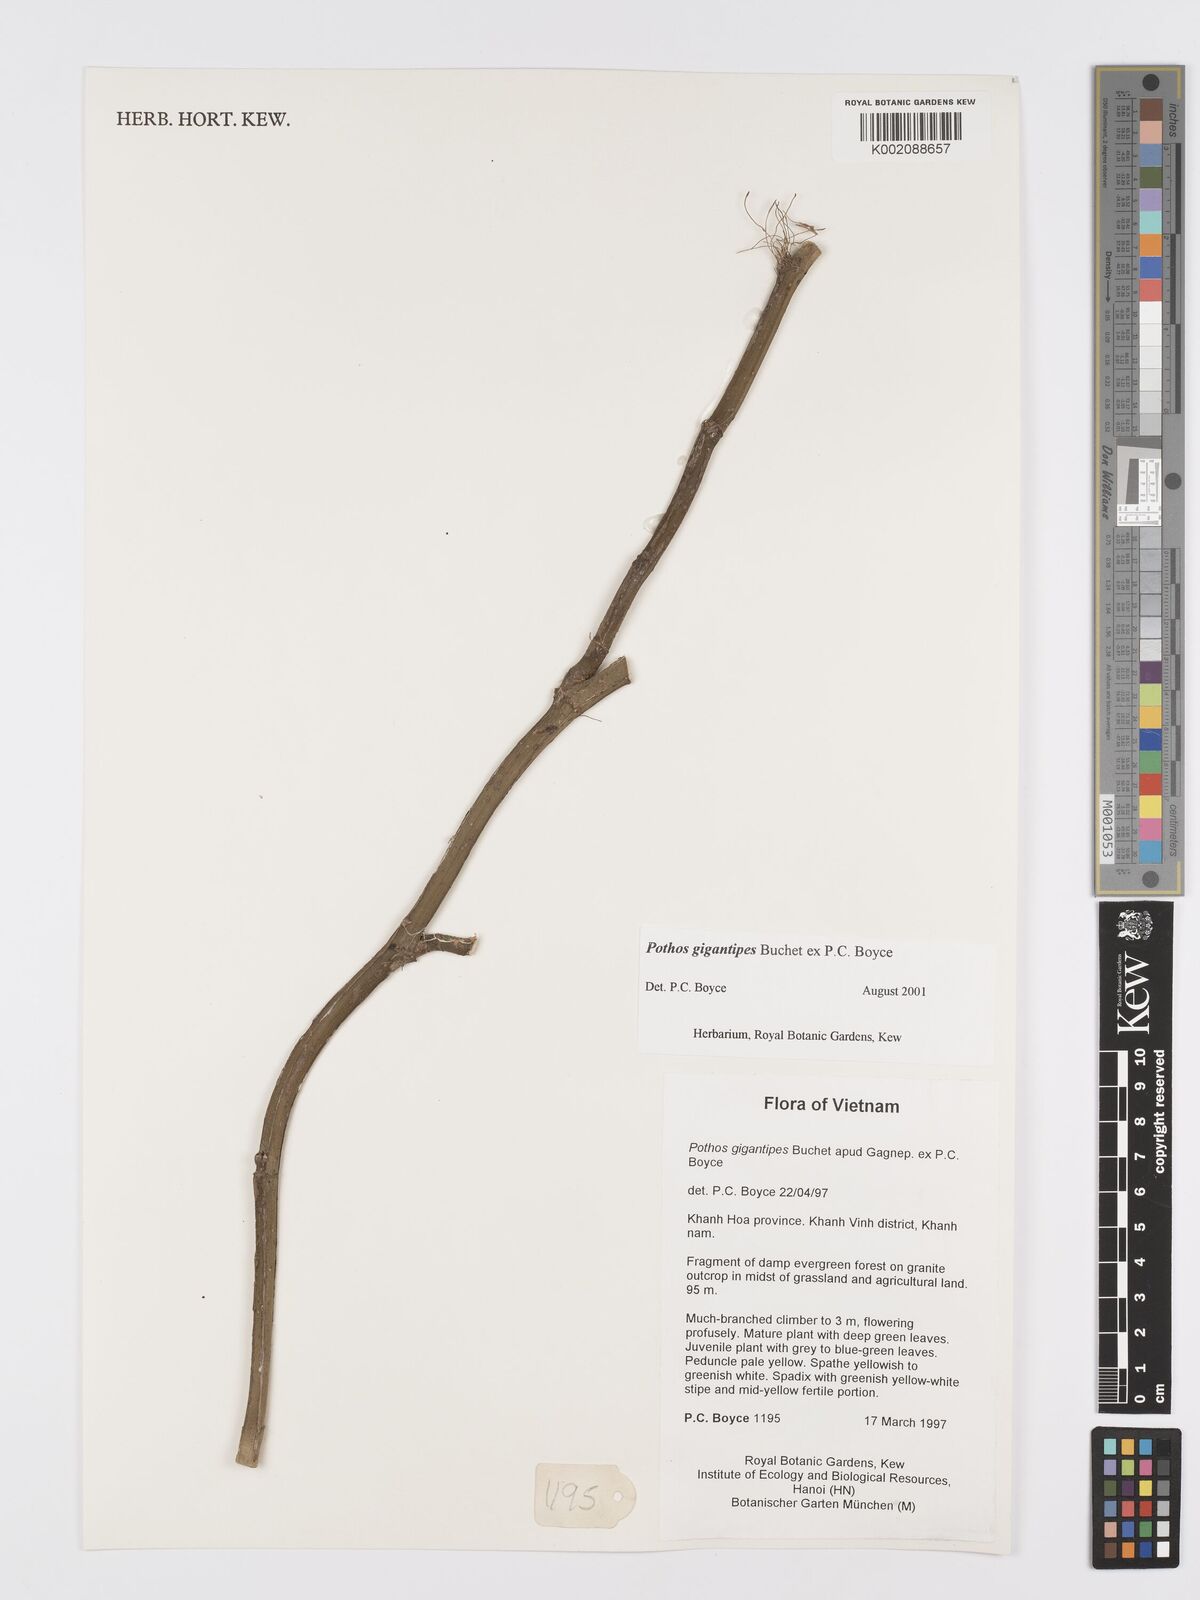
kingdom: Plantae
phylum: Tracheophyta
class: Liliopsida
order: Alismatales
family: Araceae
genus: Pothos
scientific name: Pothos gigantipes
